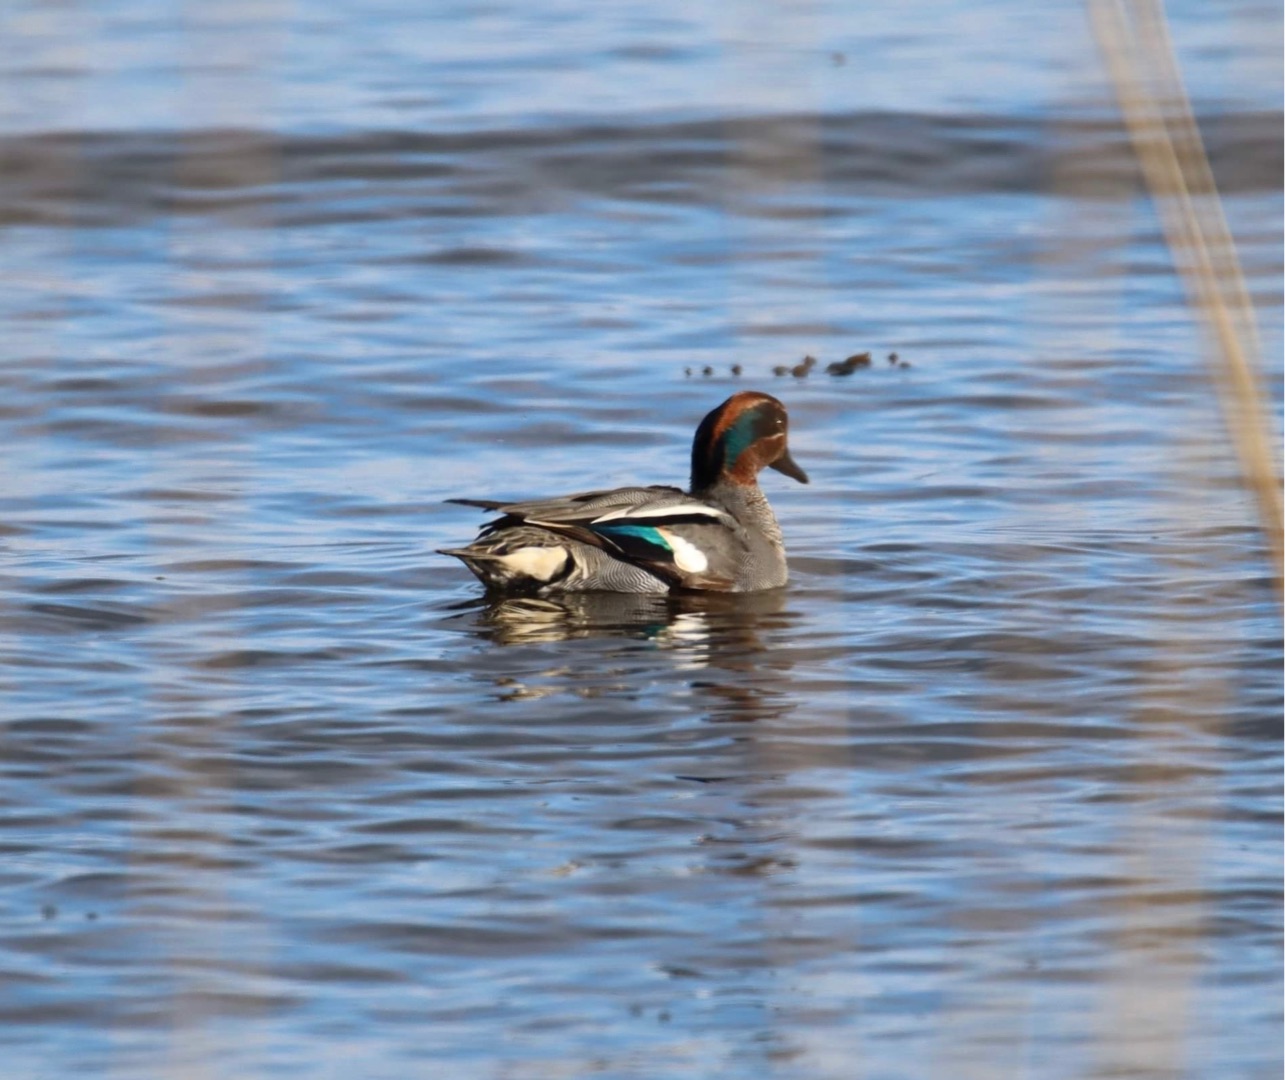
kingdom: Animalia
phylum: Chordata
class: Aves
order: Anseriformes
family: Anatidae
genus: Anas
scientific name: Anas crecca
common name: Krikand
